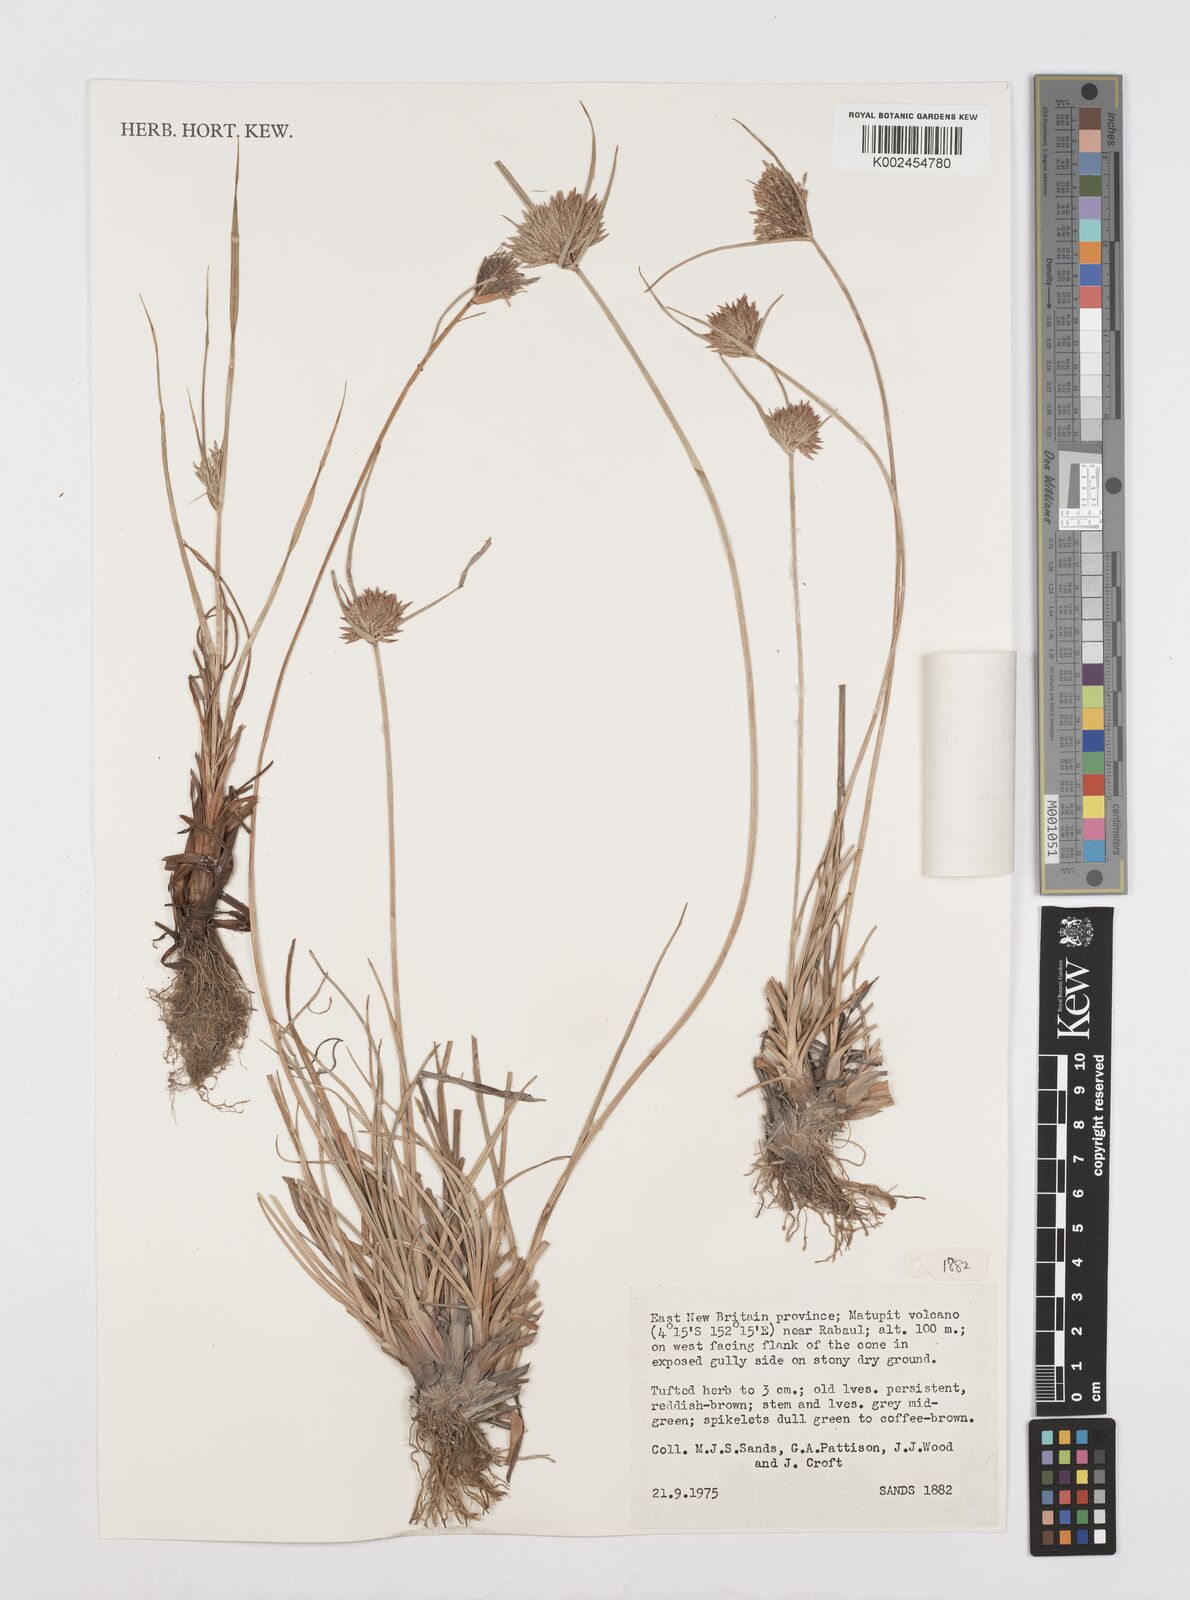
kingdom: Plantae
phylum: Tracheophyta
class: Liliopsida
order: Poales
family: Cyperaceae
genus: Cyperus
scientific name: Cyperus polystachyos
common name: Bunchy flat sedge
